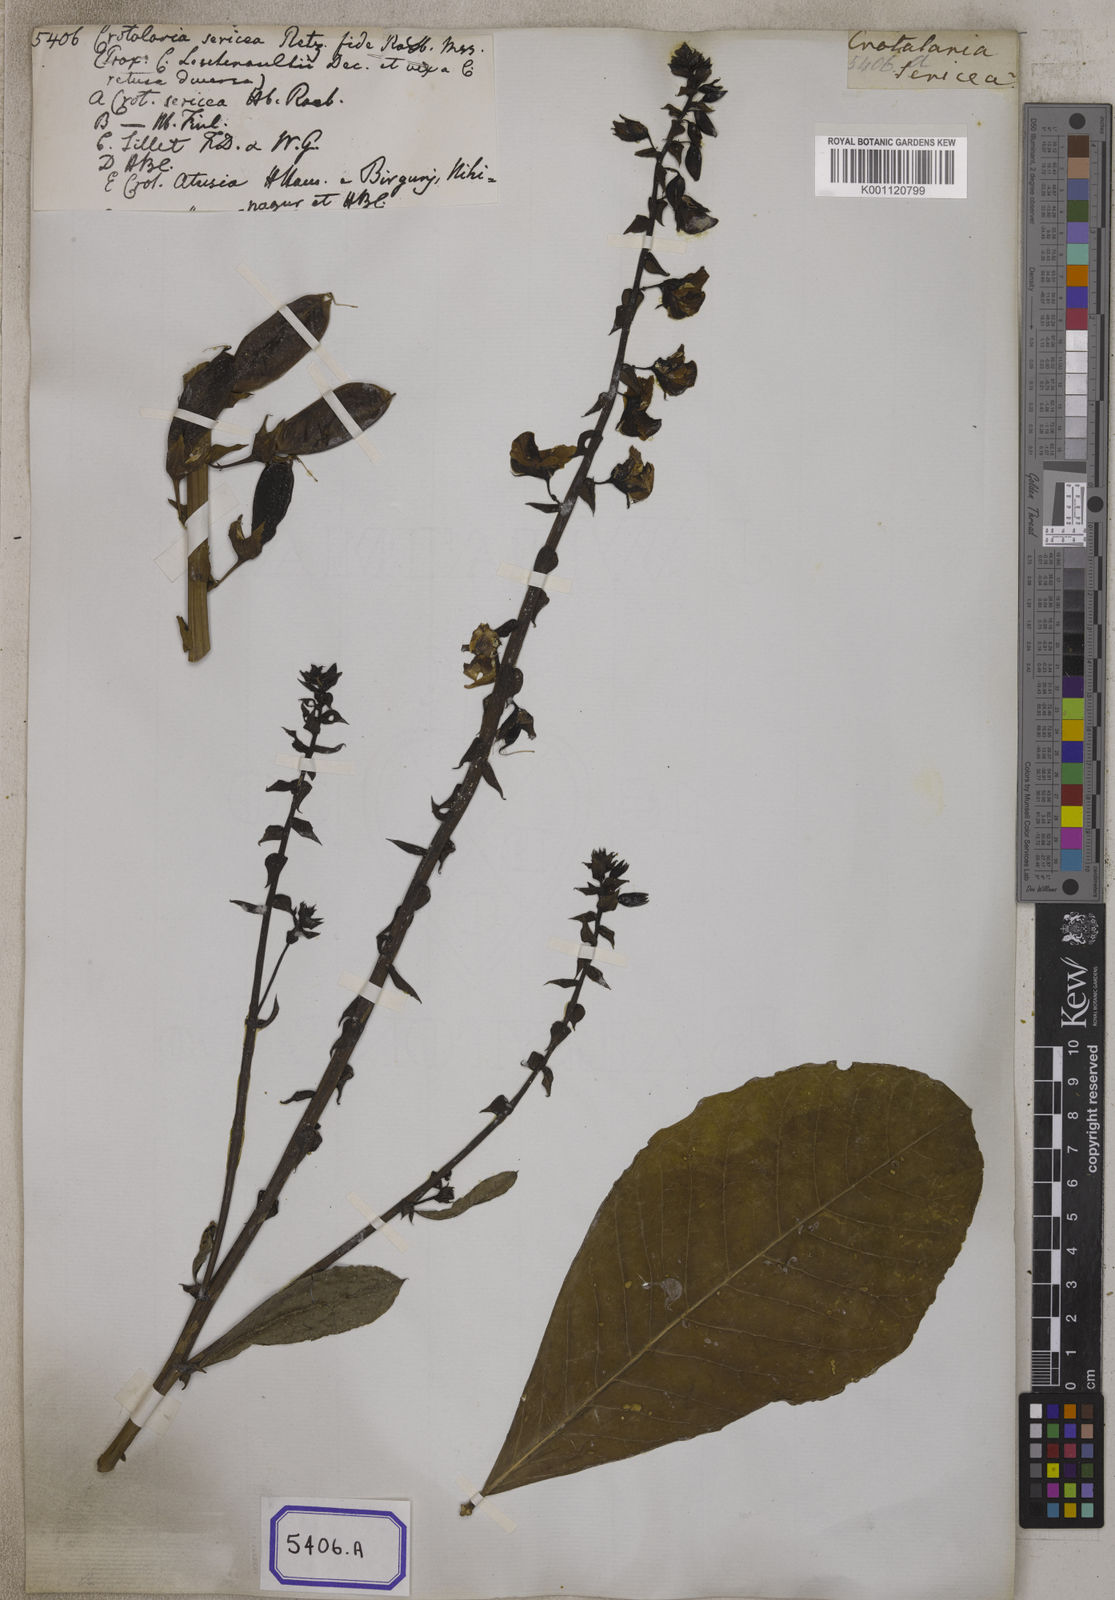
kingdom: Plantae
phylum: Tracheophyta
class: Magnoliopsida
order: Fabales
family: Fabaceae
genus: Crotalaria
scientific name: Crotalaria spectabilis
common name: Showy rattlebox
